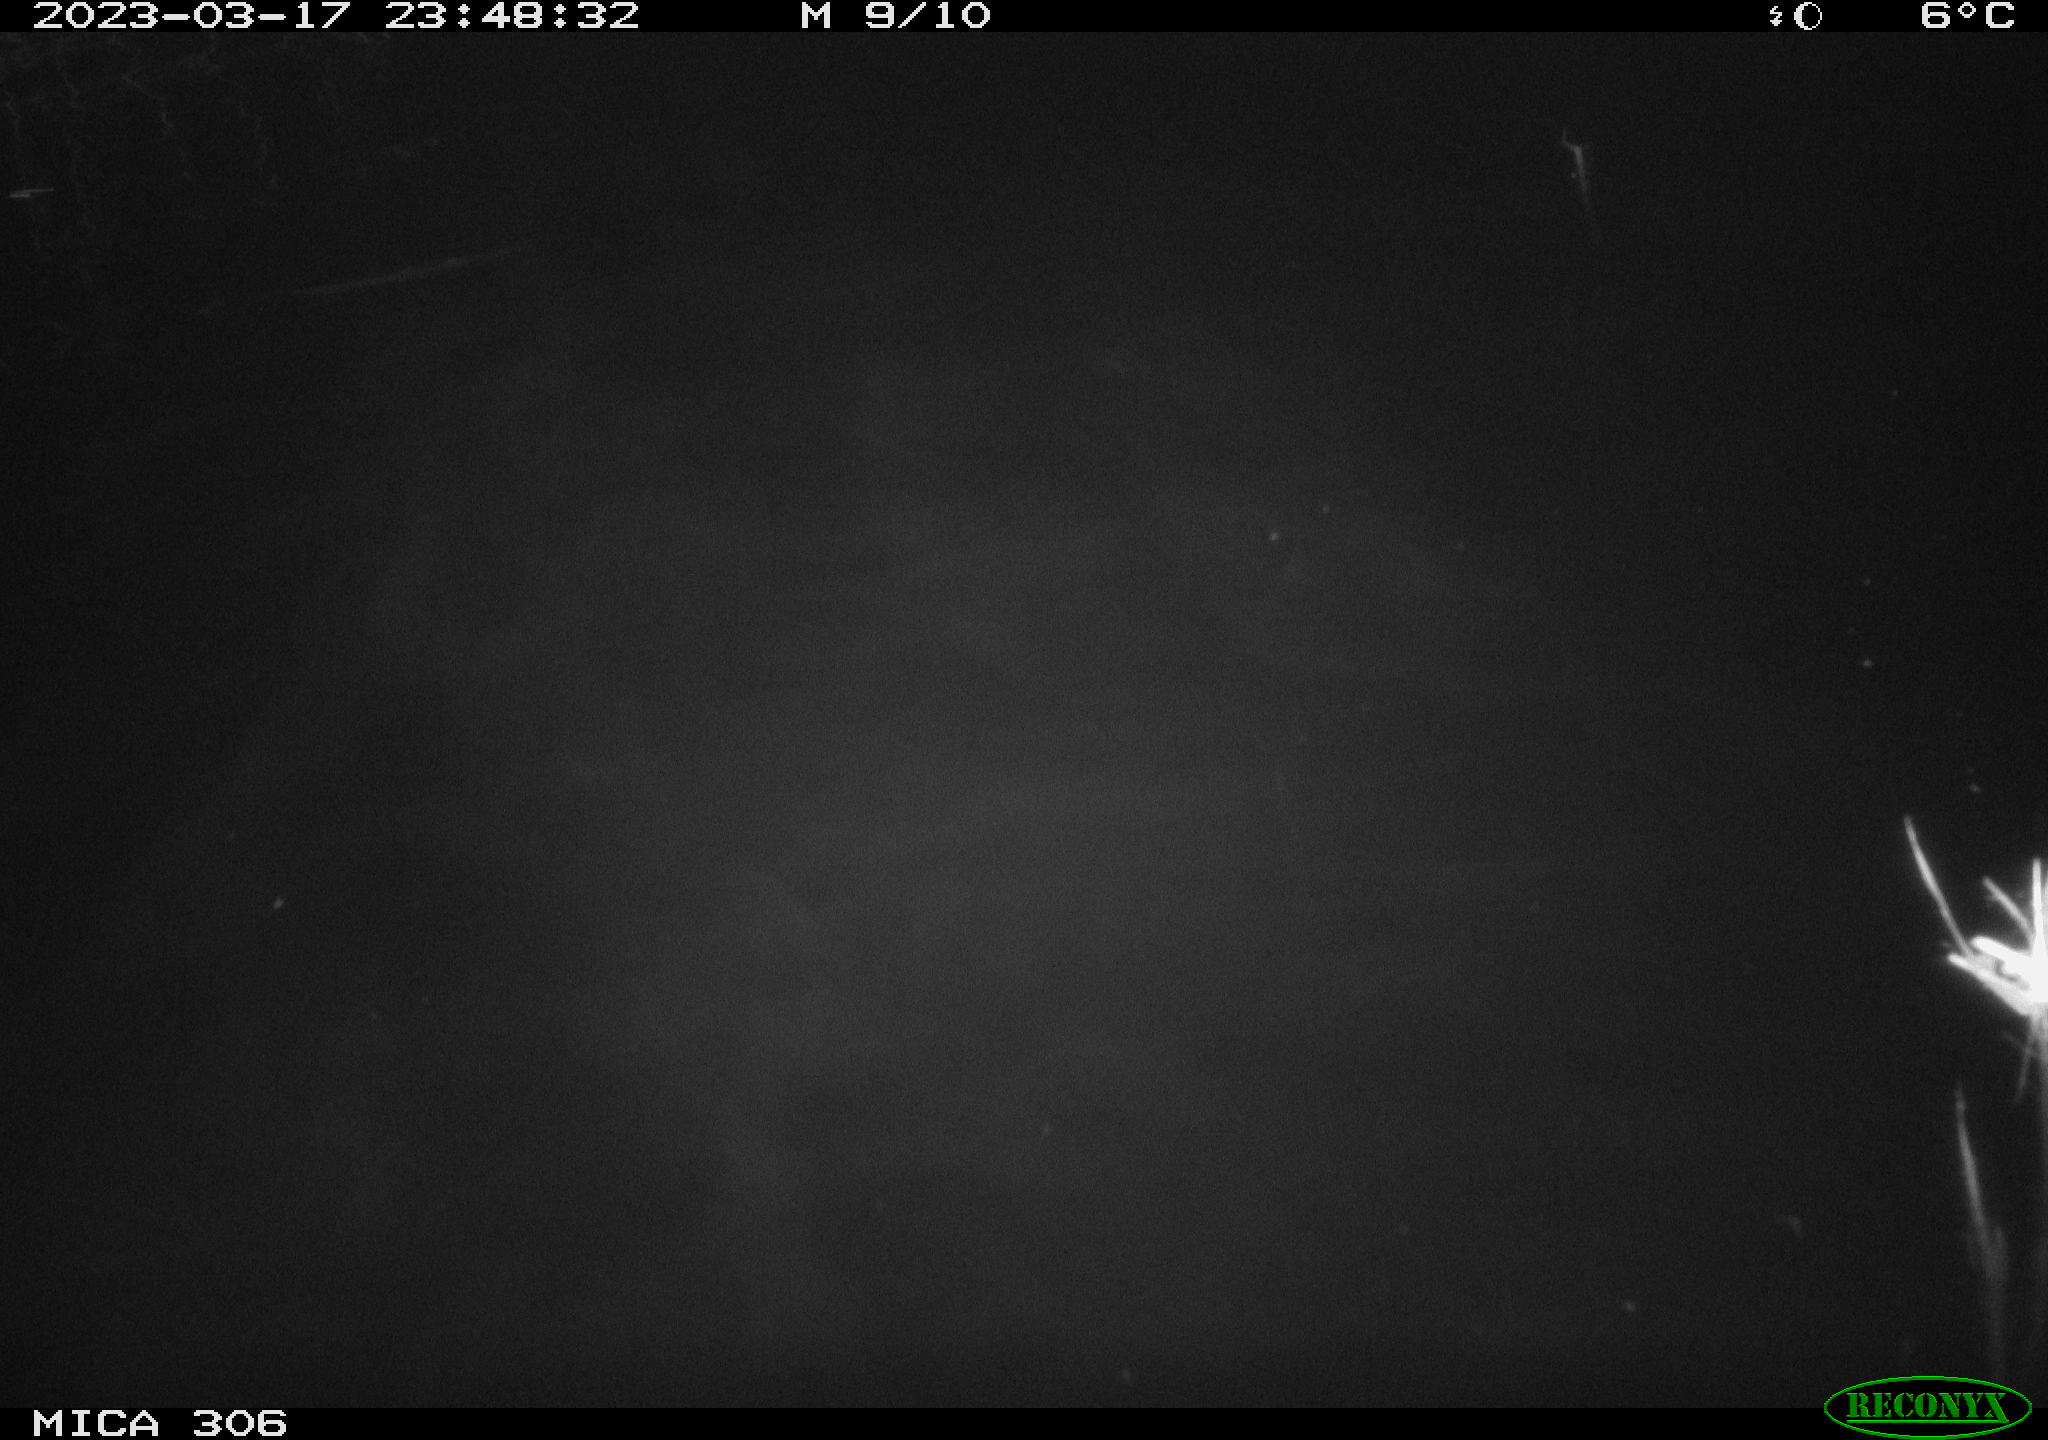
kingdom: Animalia
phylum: Chordata
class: Mammalia
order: Rodentia
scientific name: Rodentia
